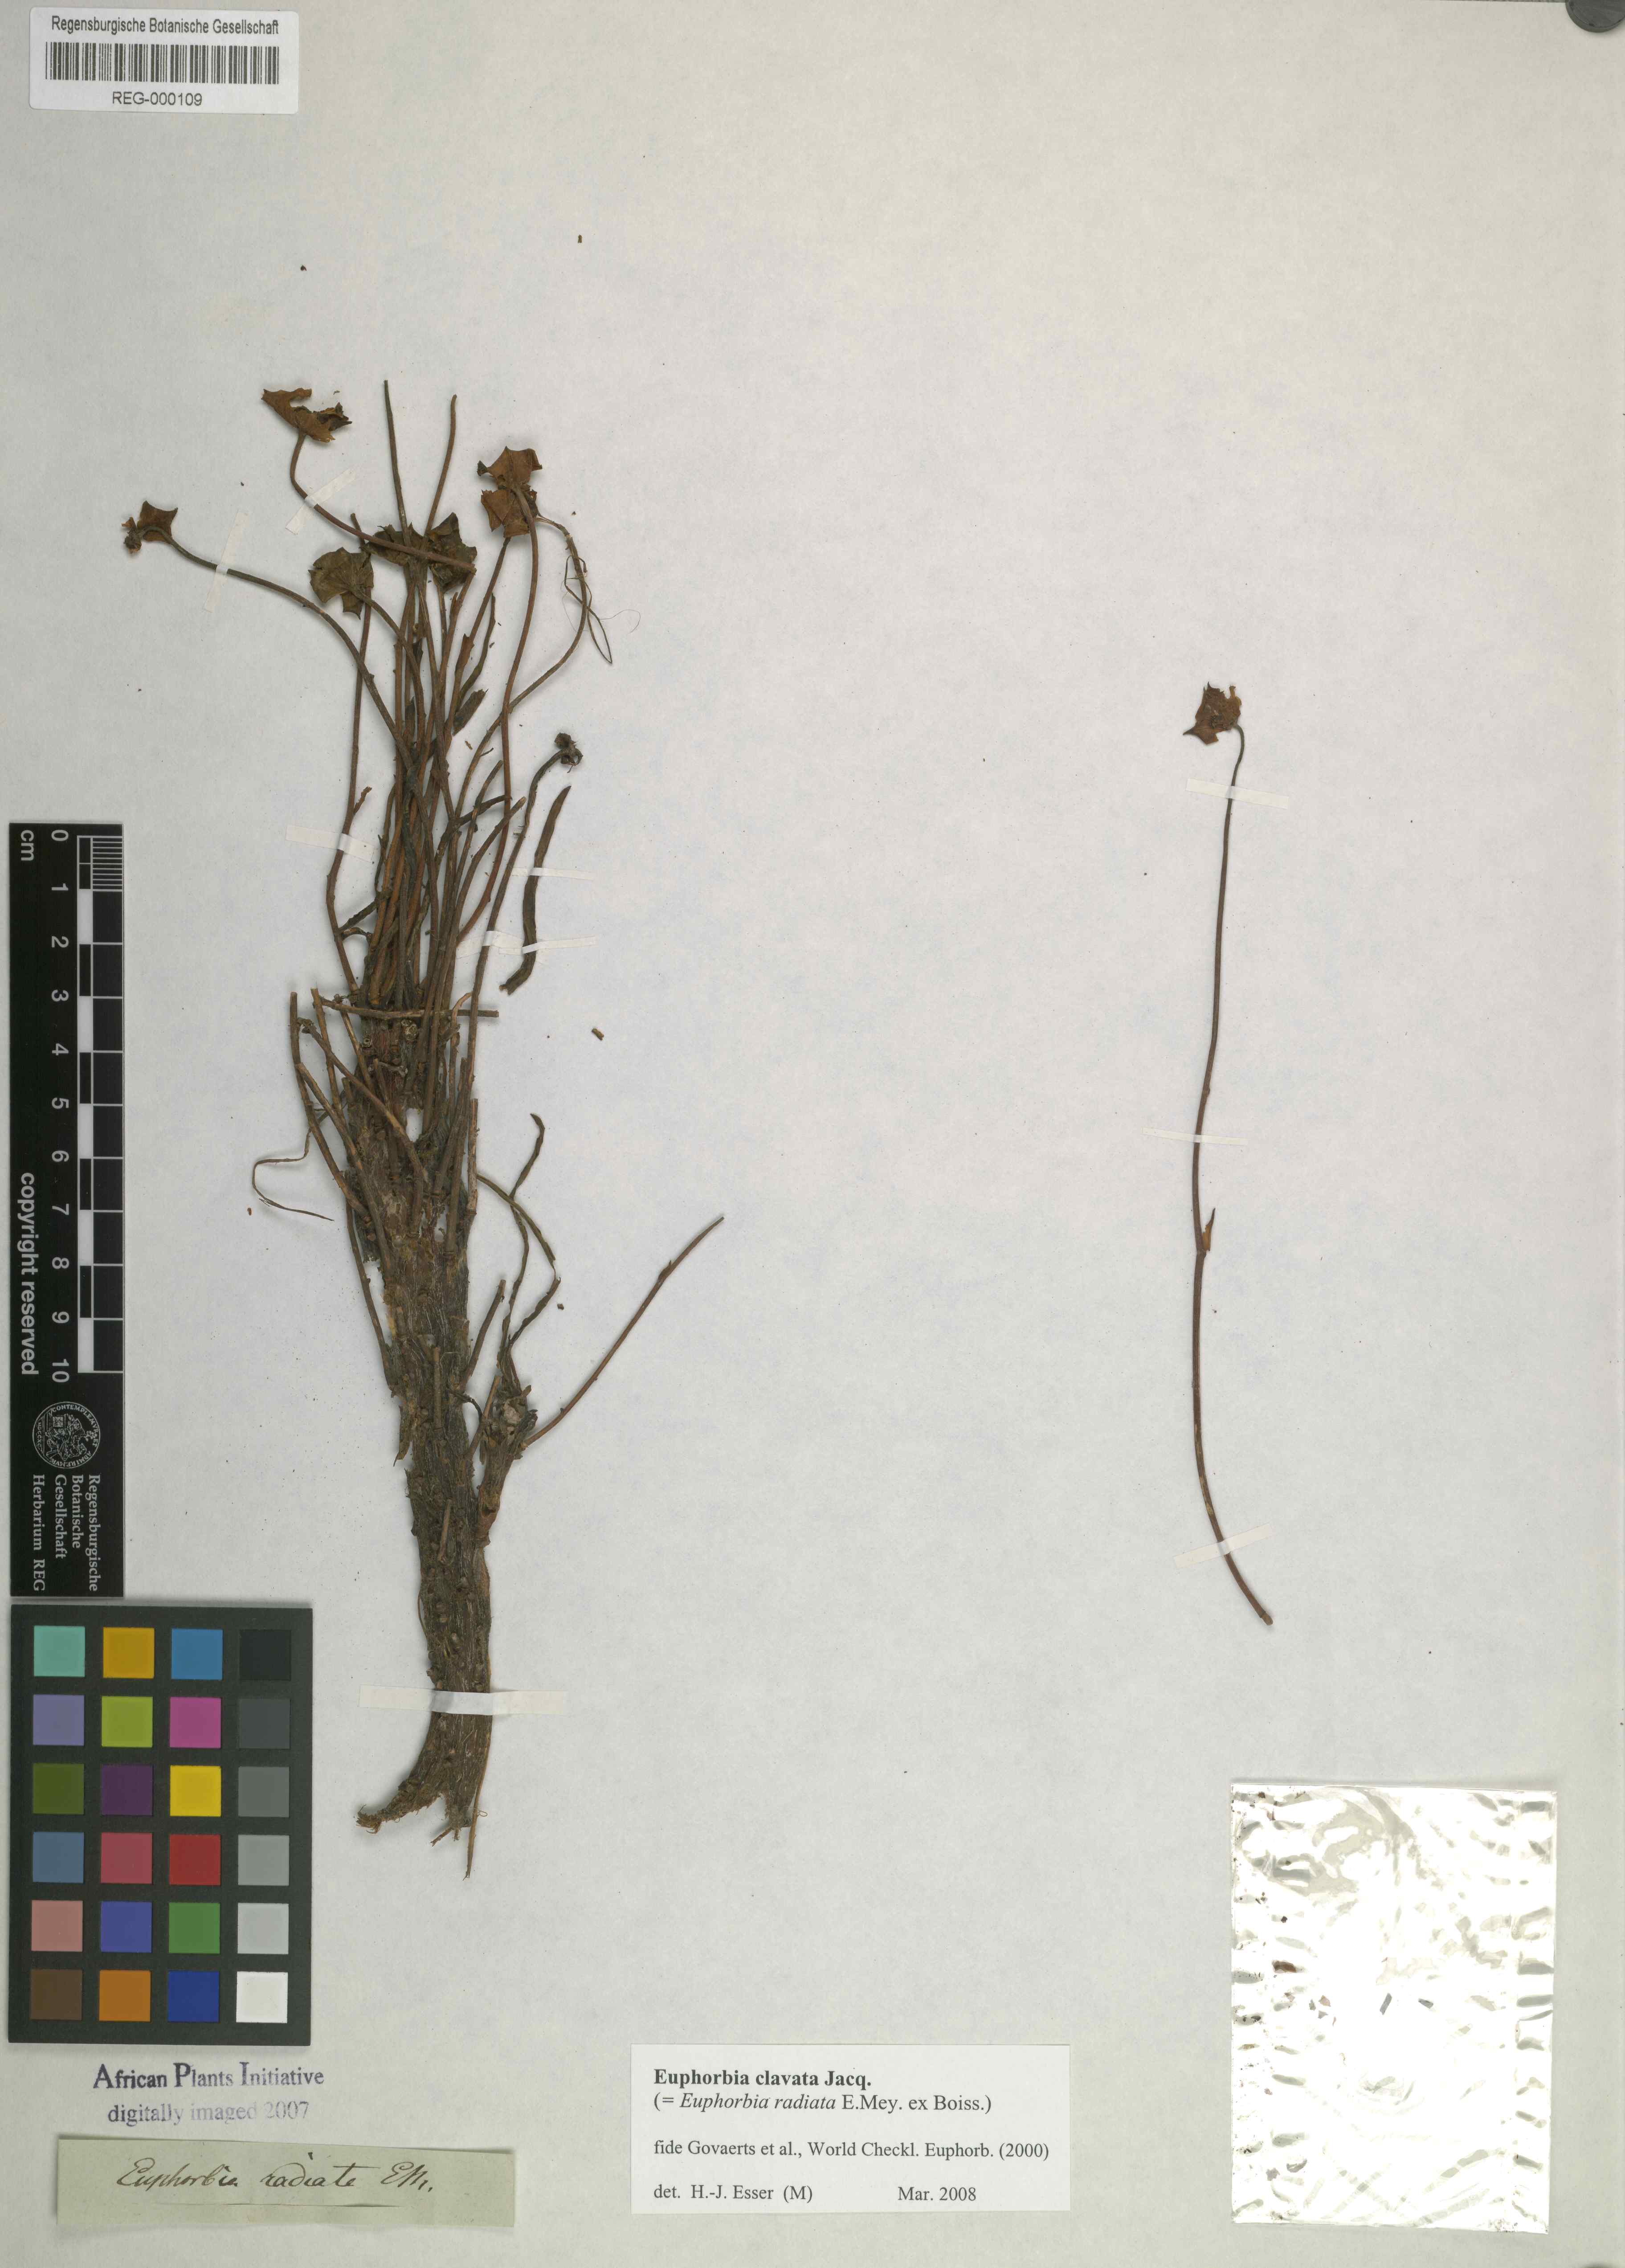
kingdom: Plantae
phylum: Tracheophyta
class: Magnoliopsida
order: Malpighiales
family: Euphorbiaceae
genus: Euphorbia
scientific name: Euphorbia clava
